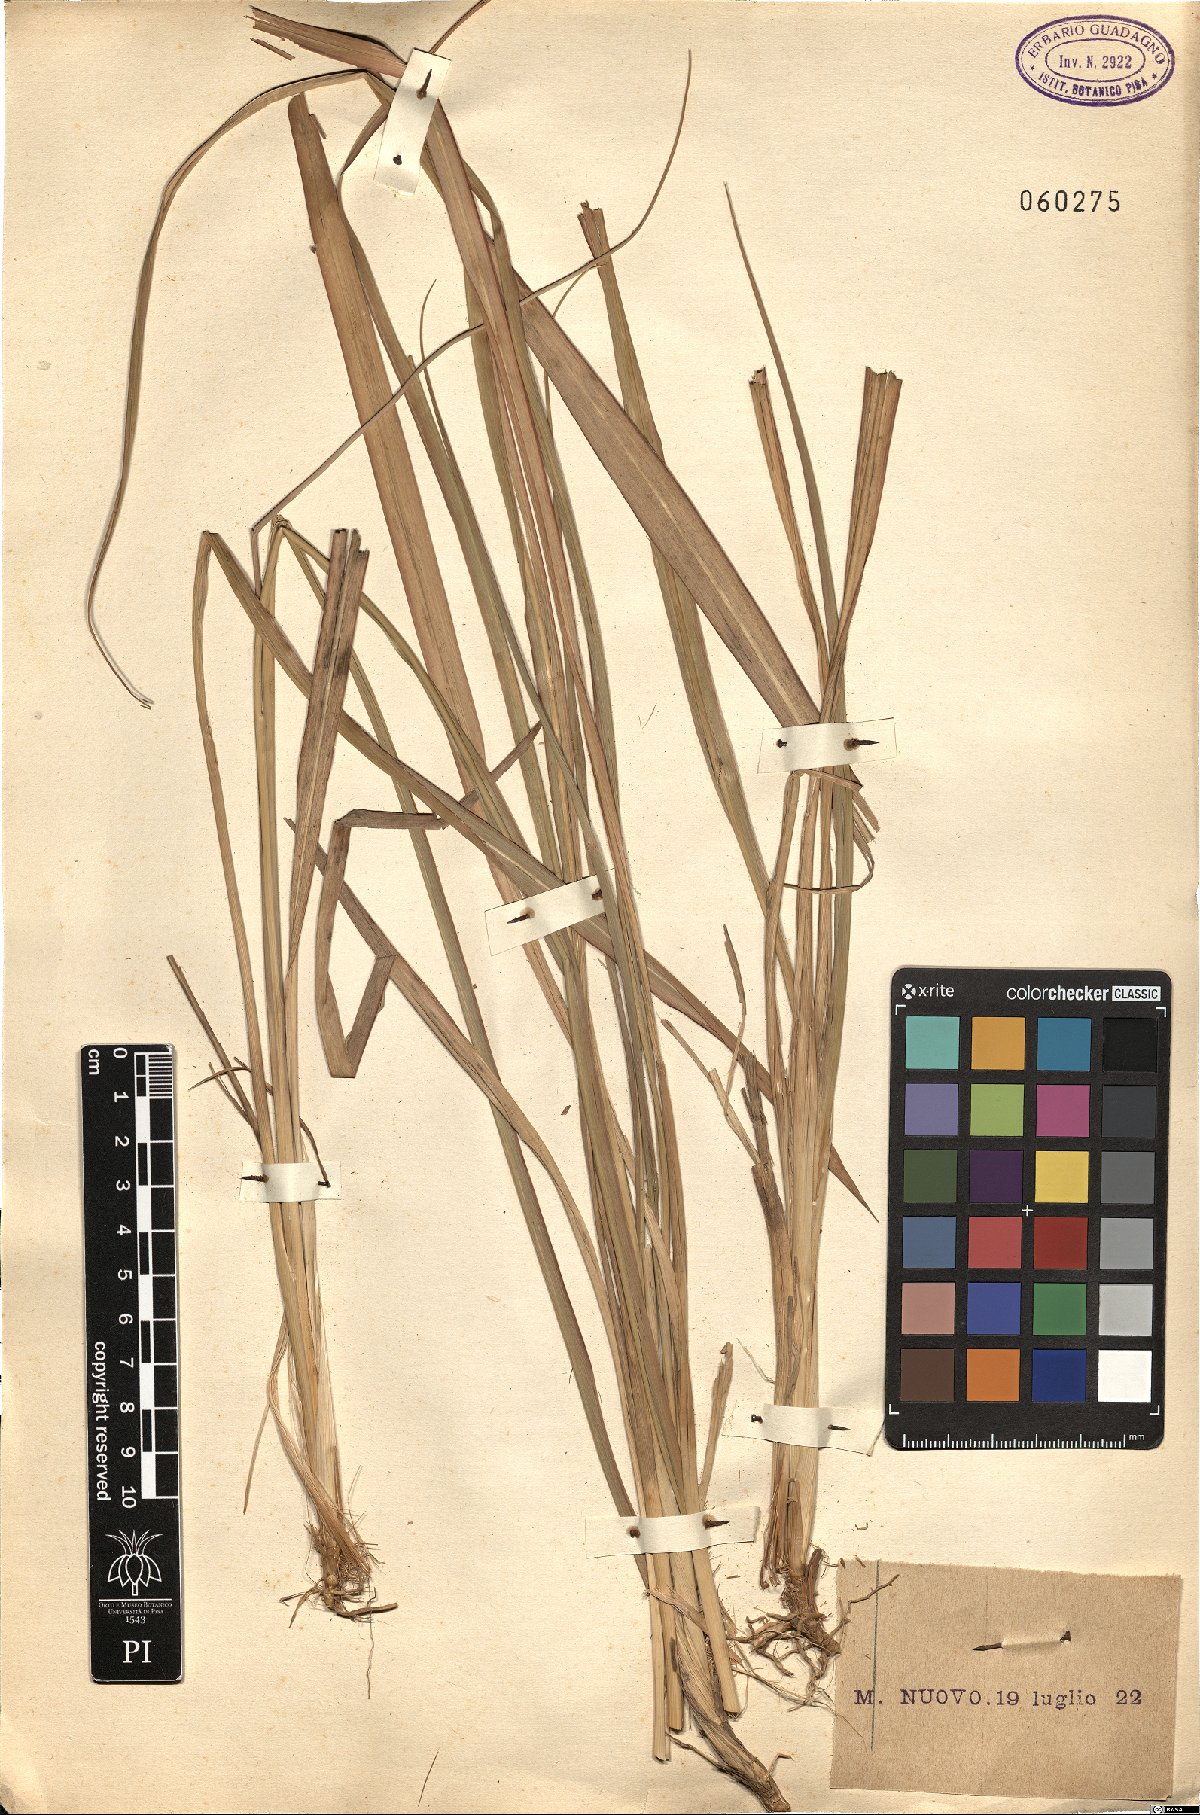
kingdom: Plantae
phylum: Tracheophyta
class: Liliopsida
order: Poales
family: Poaceae
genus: Arundo
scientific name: Arundo
